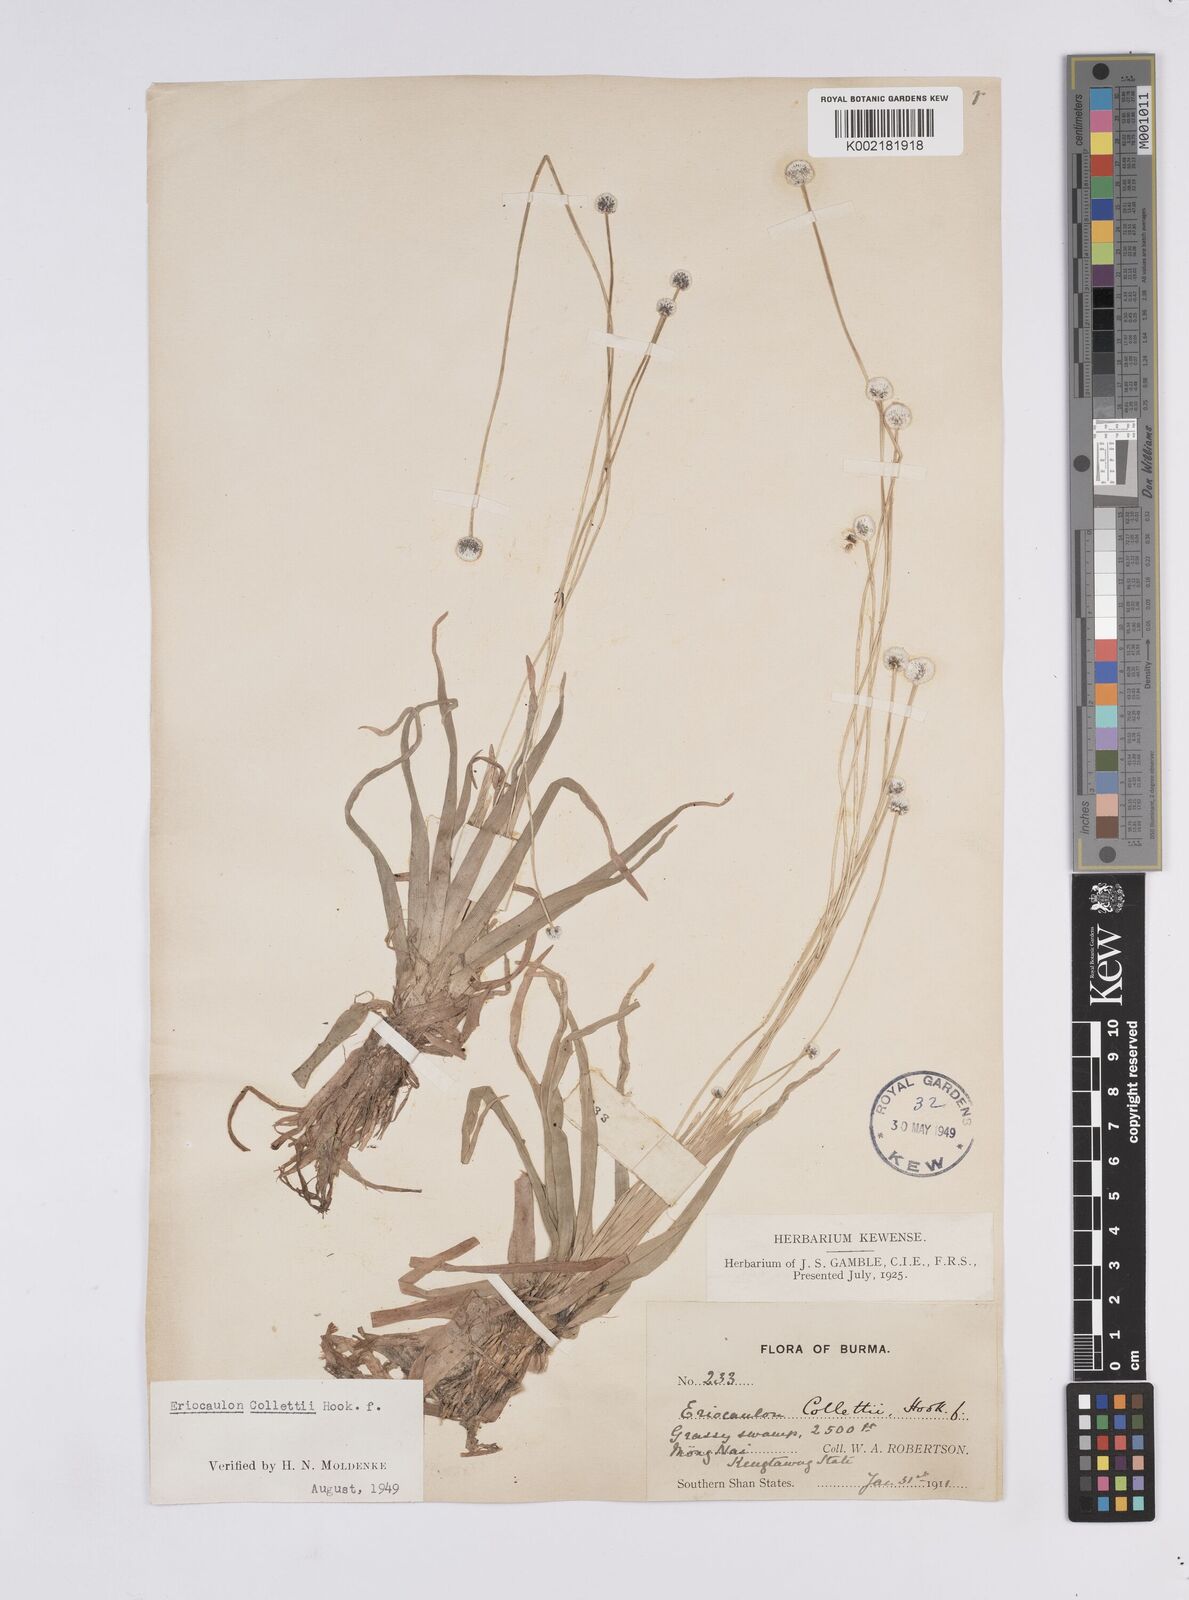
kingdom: Plantae
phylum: Tracheophyta
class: Liliopsida
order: Poales
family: Eriocaulaceae
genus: Eriocaulon
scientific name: Eriocaulon collettii
